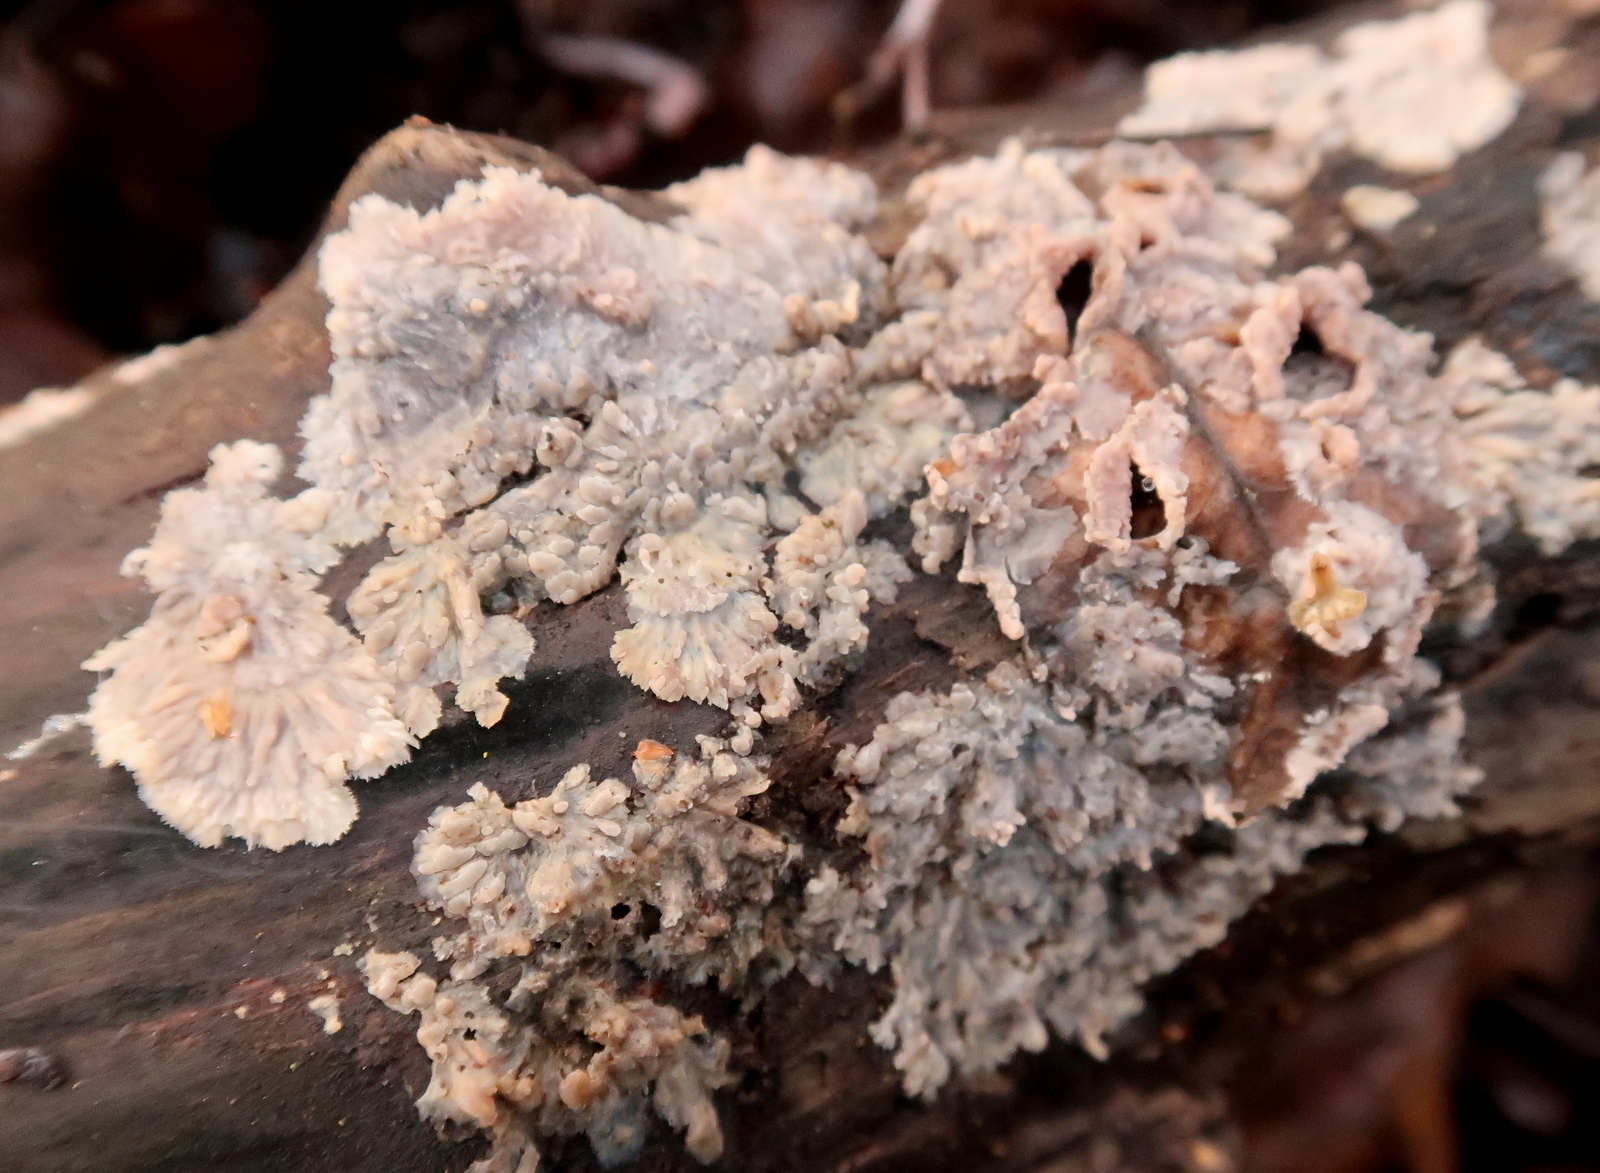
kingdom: Fungi
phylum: Basidiomycota
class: Agaricomycetes
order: Polyporales
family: Meruliaceae
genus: Phlebia
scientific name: Phlebia radiata
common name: stråle-åresvamp
